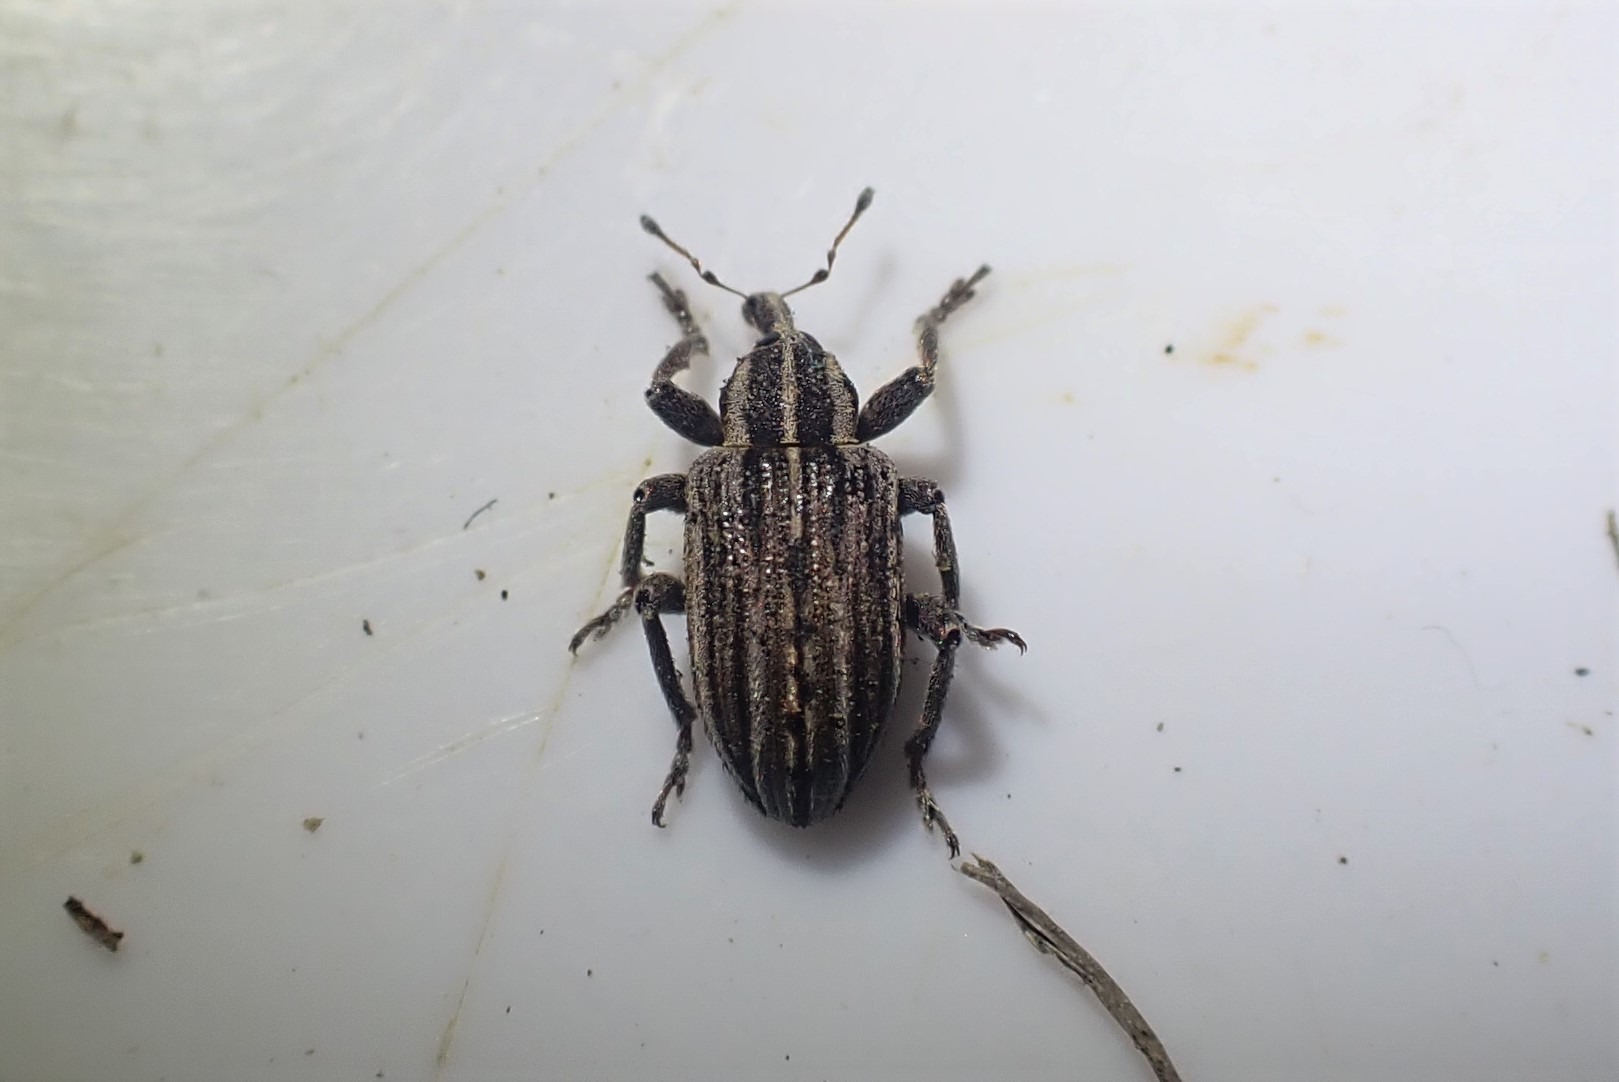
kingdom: Animalia
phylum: Arthropoda
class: Insecta
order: Coleoptera
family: Curculionidae
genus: Hypera
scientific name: Hypera arator
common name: Nellikegnaver
